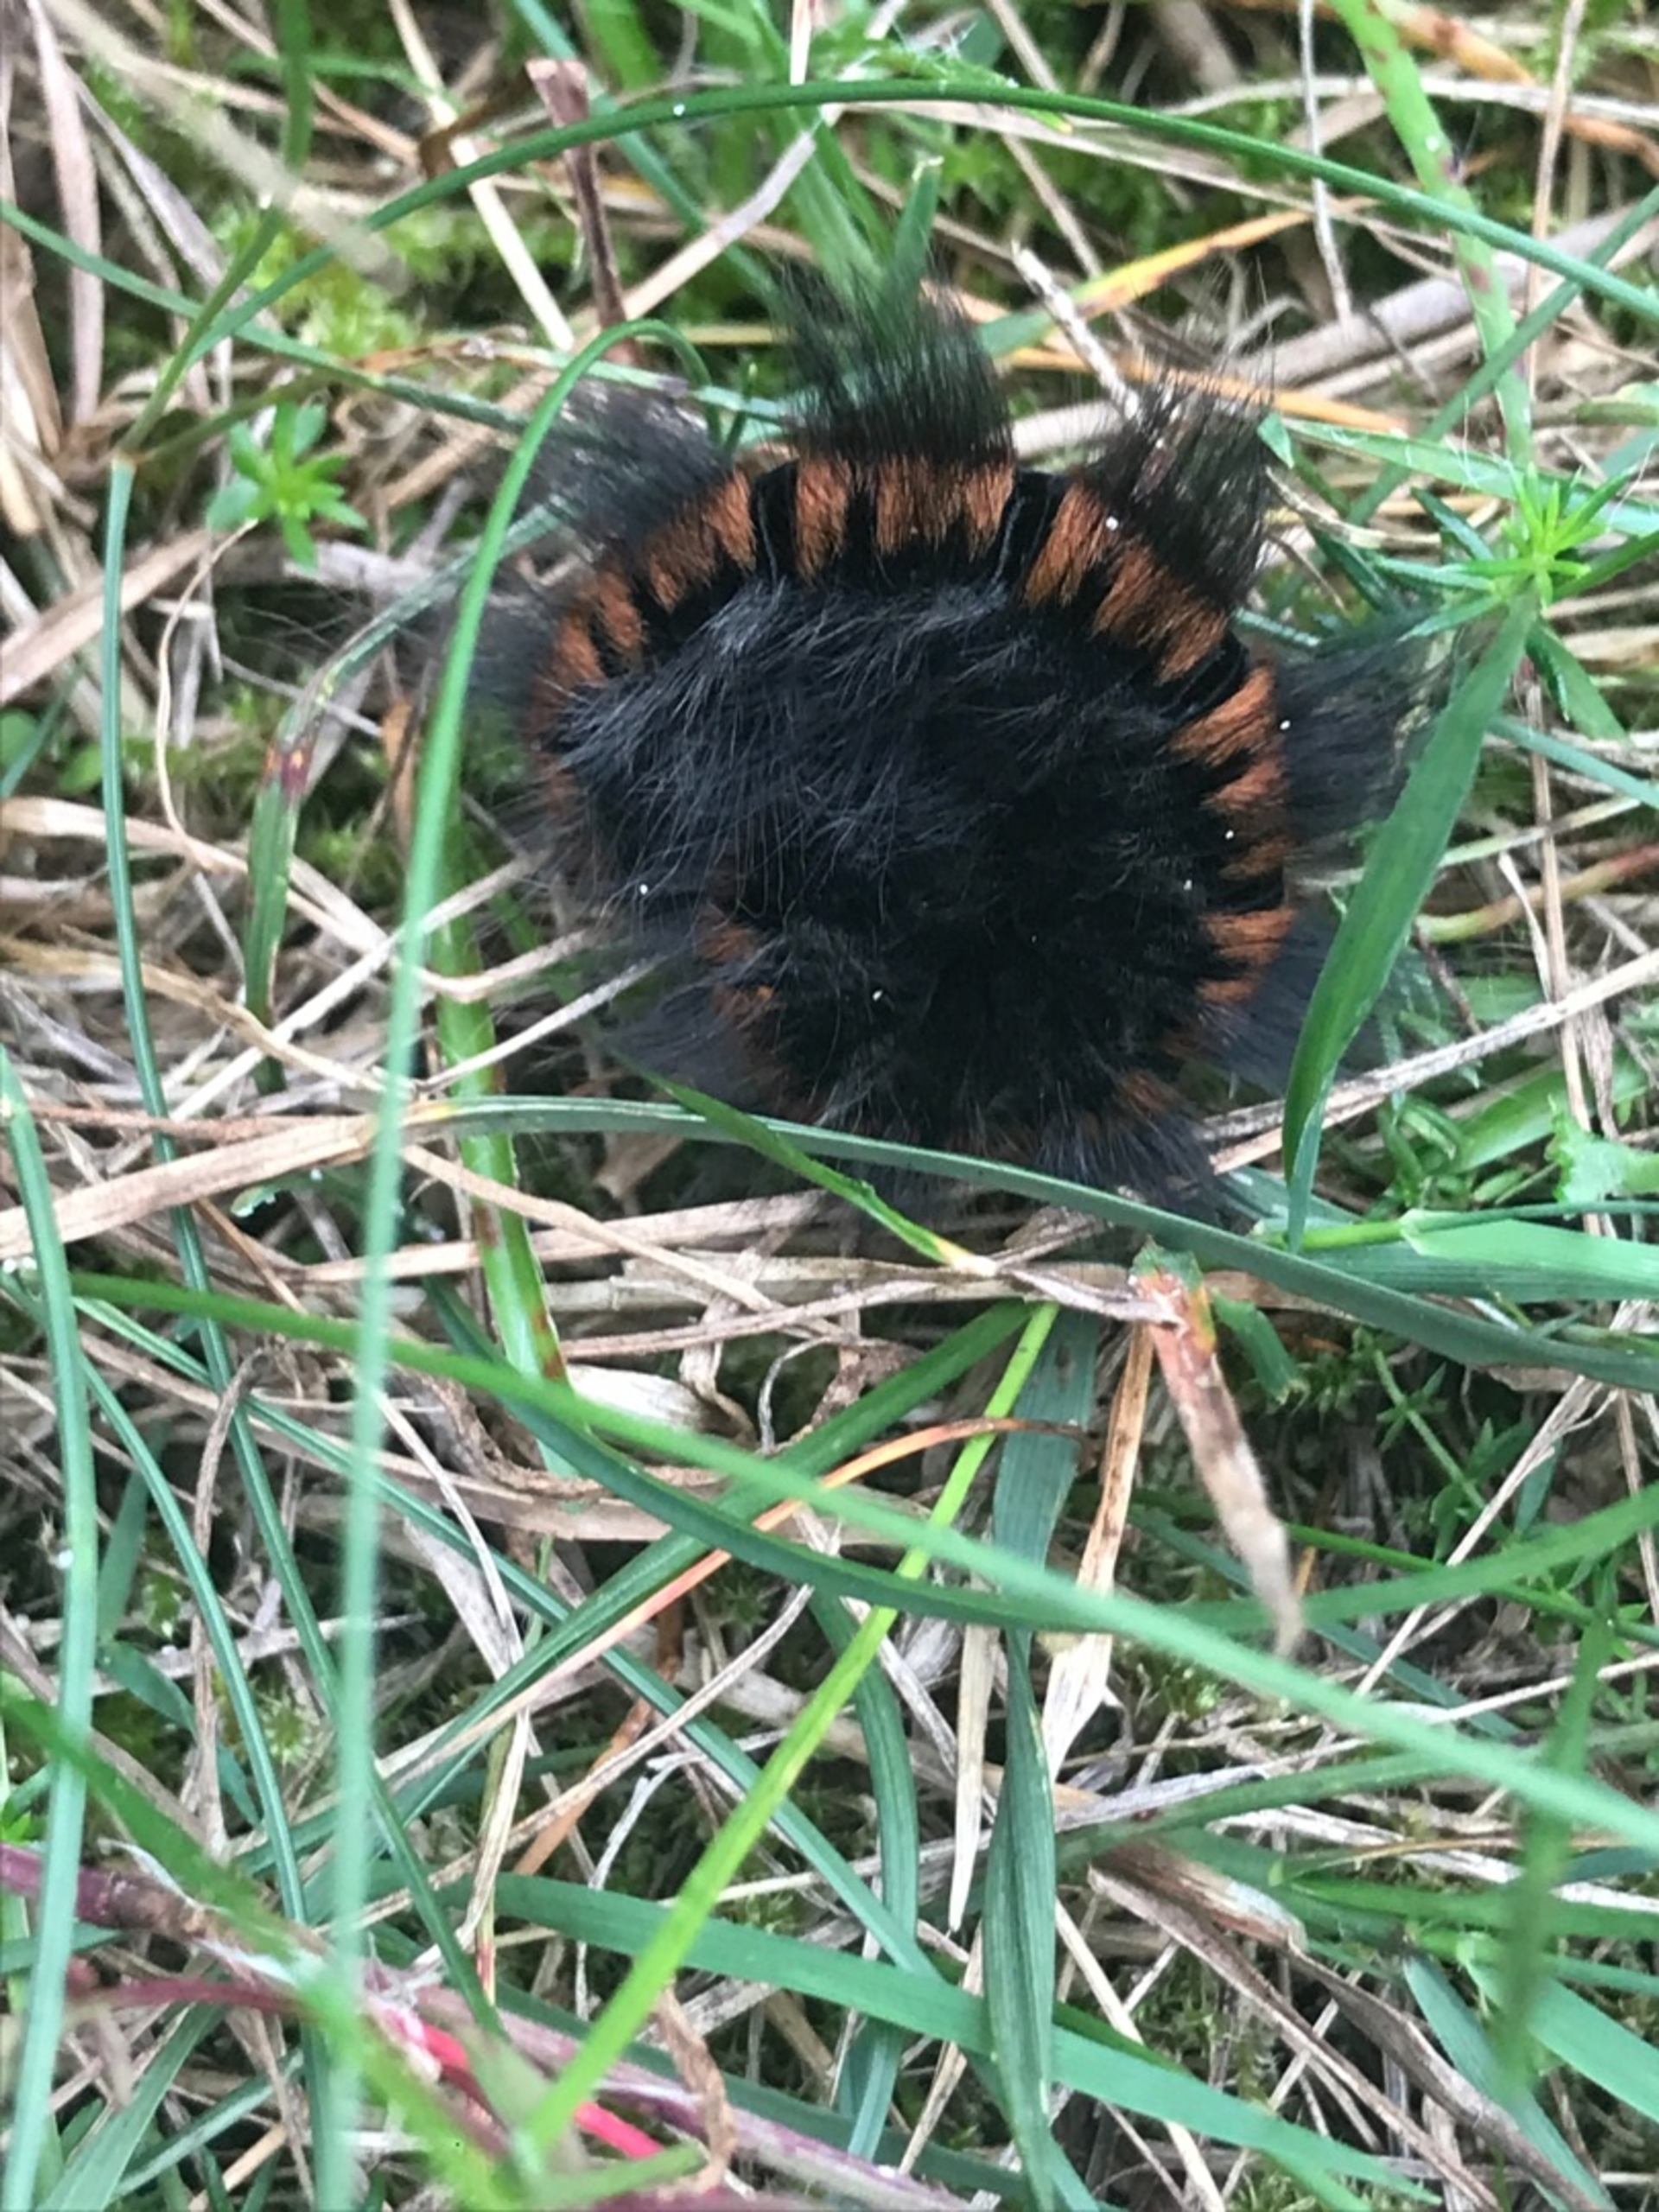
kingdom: Animalia
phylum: Arthropoda
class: Insecta
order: Lepidoptera
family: Lasiocampidae
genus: Macrothylacia
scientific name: Macrothylacia rubi
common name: Brombærspinder
